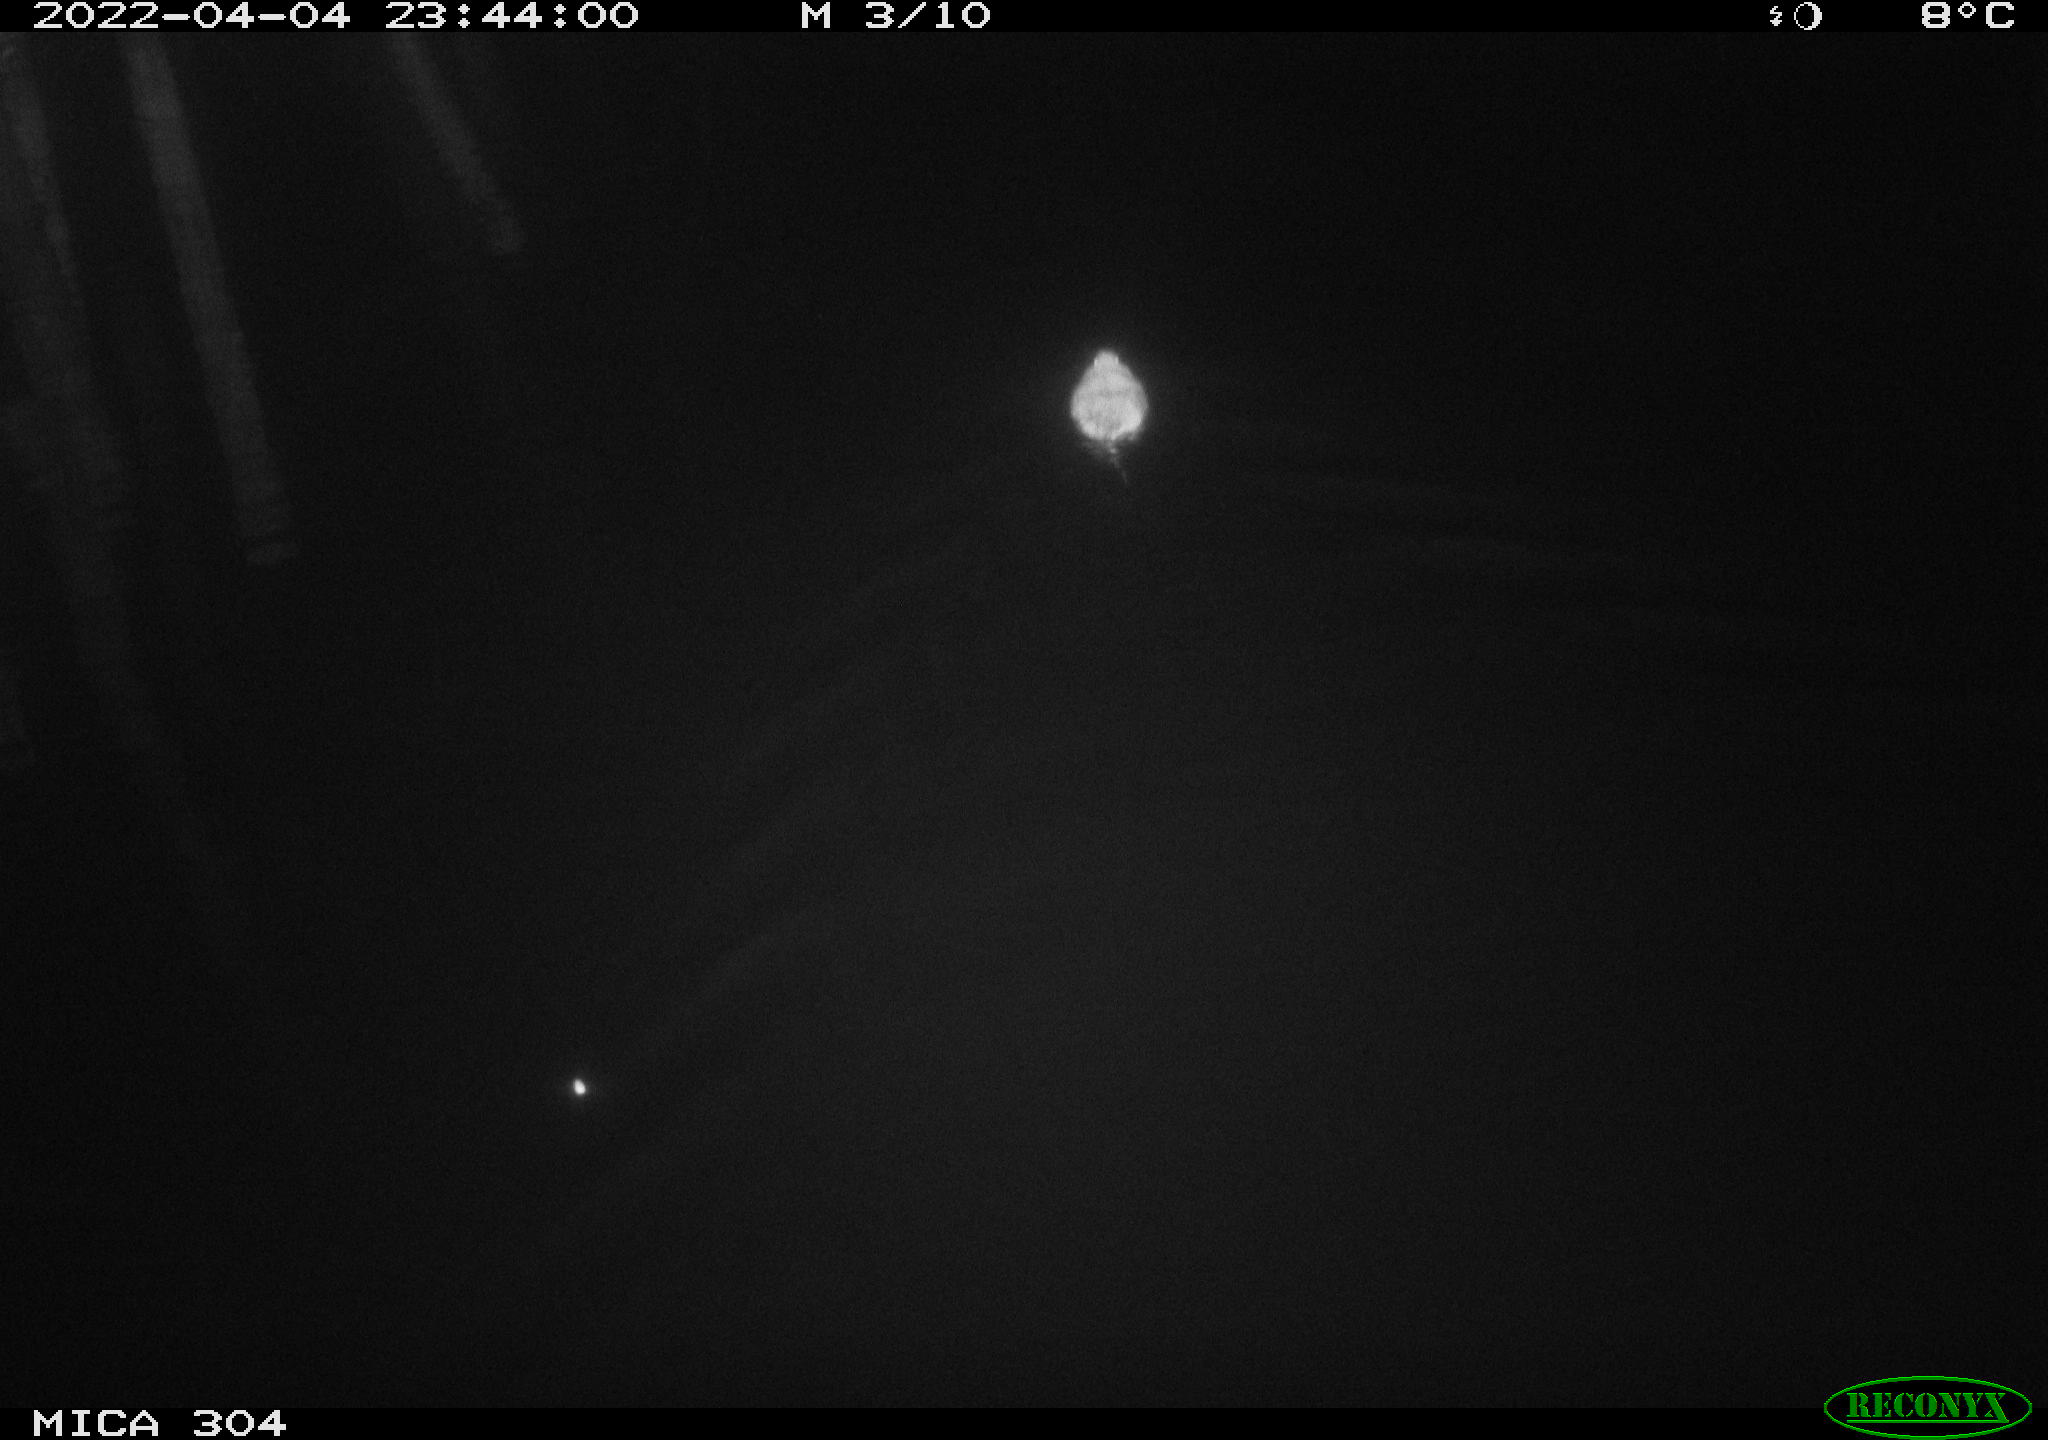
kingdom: Animalia
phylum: Chordata
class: Mammalia
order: Rodentia
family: Muridae
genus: Rattus
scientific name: Rattus norvegicus
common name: Brown rat
